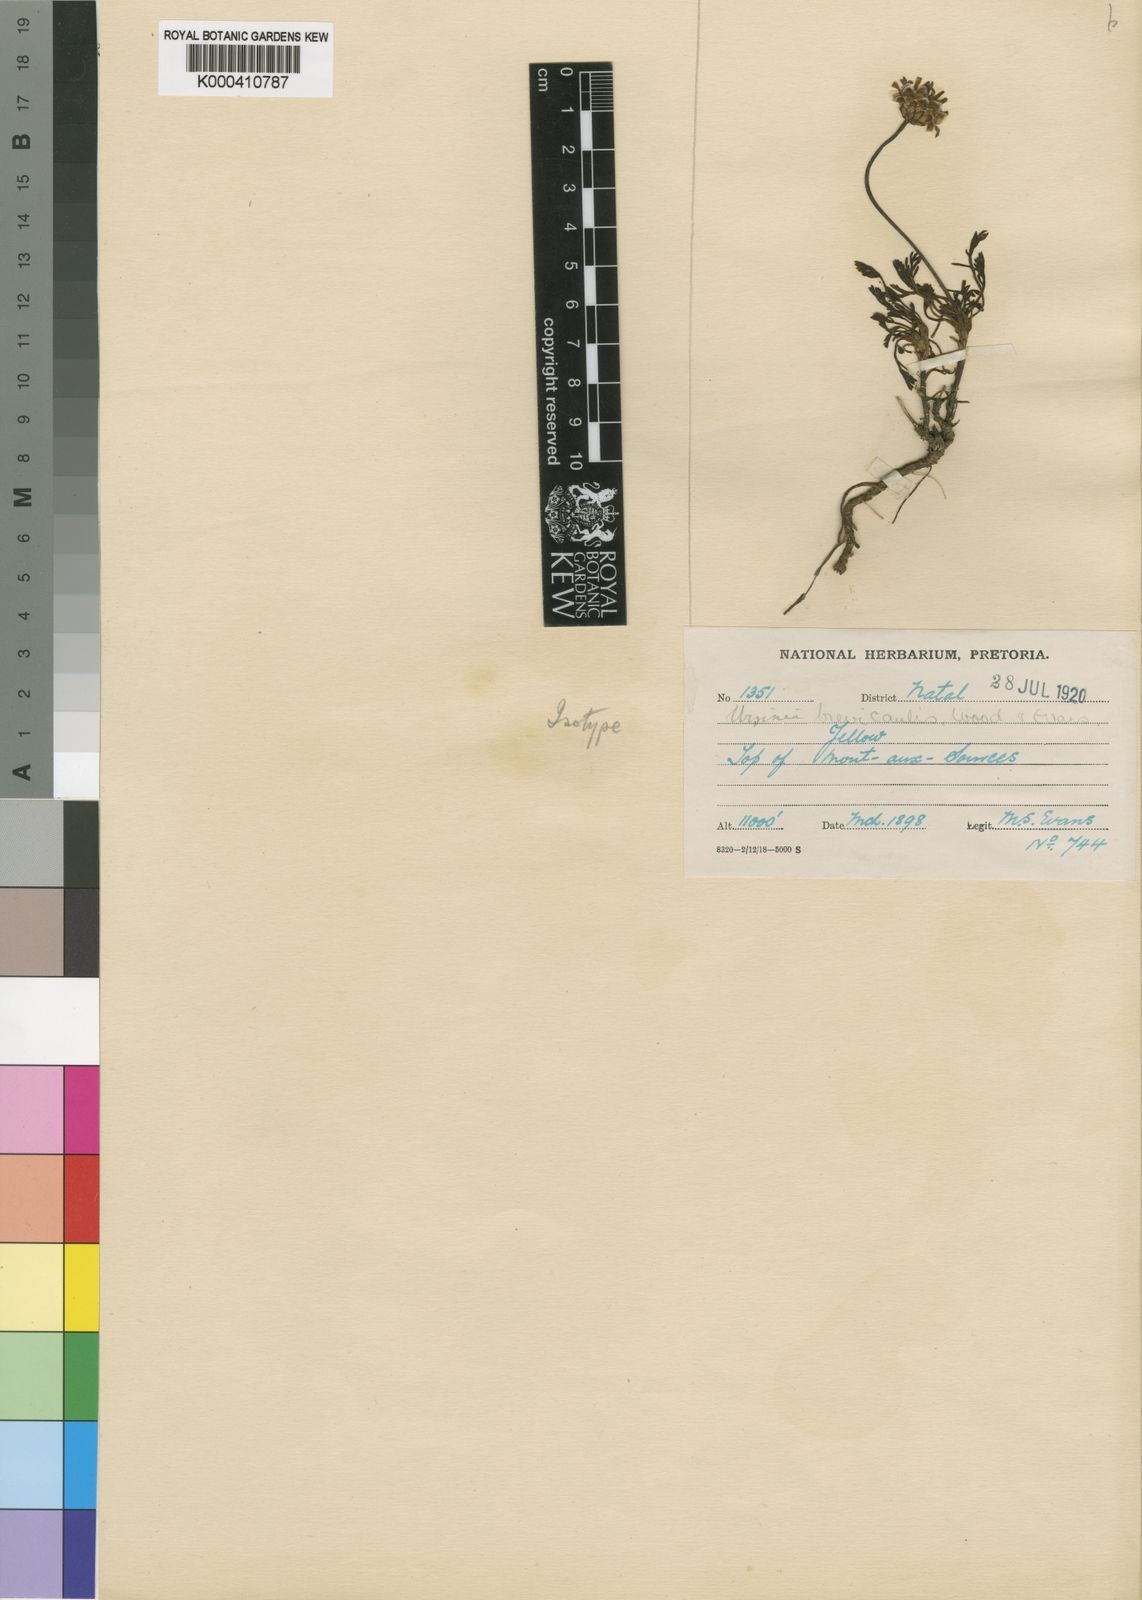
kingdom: Plantae
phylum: Tracheophyta
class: Magnoliopsida
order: Asterales
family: Asteraceae
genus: Ursinia
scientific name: Ursinia montana
